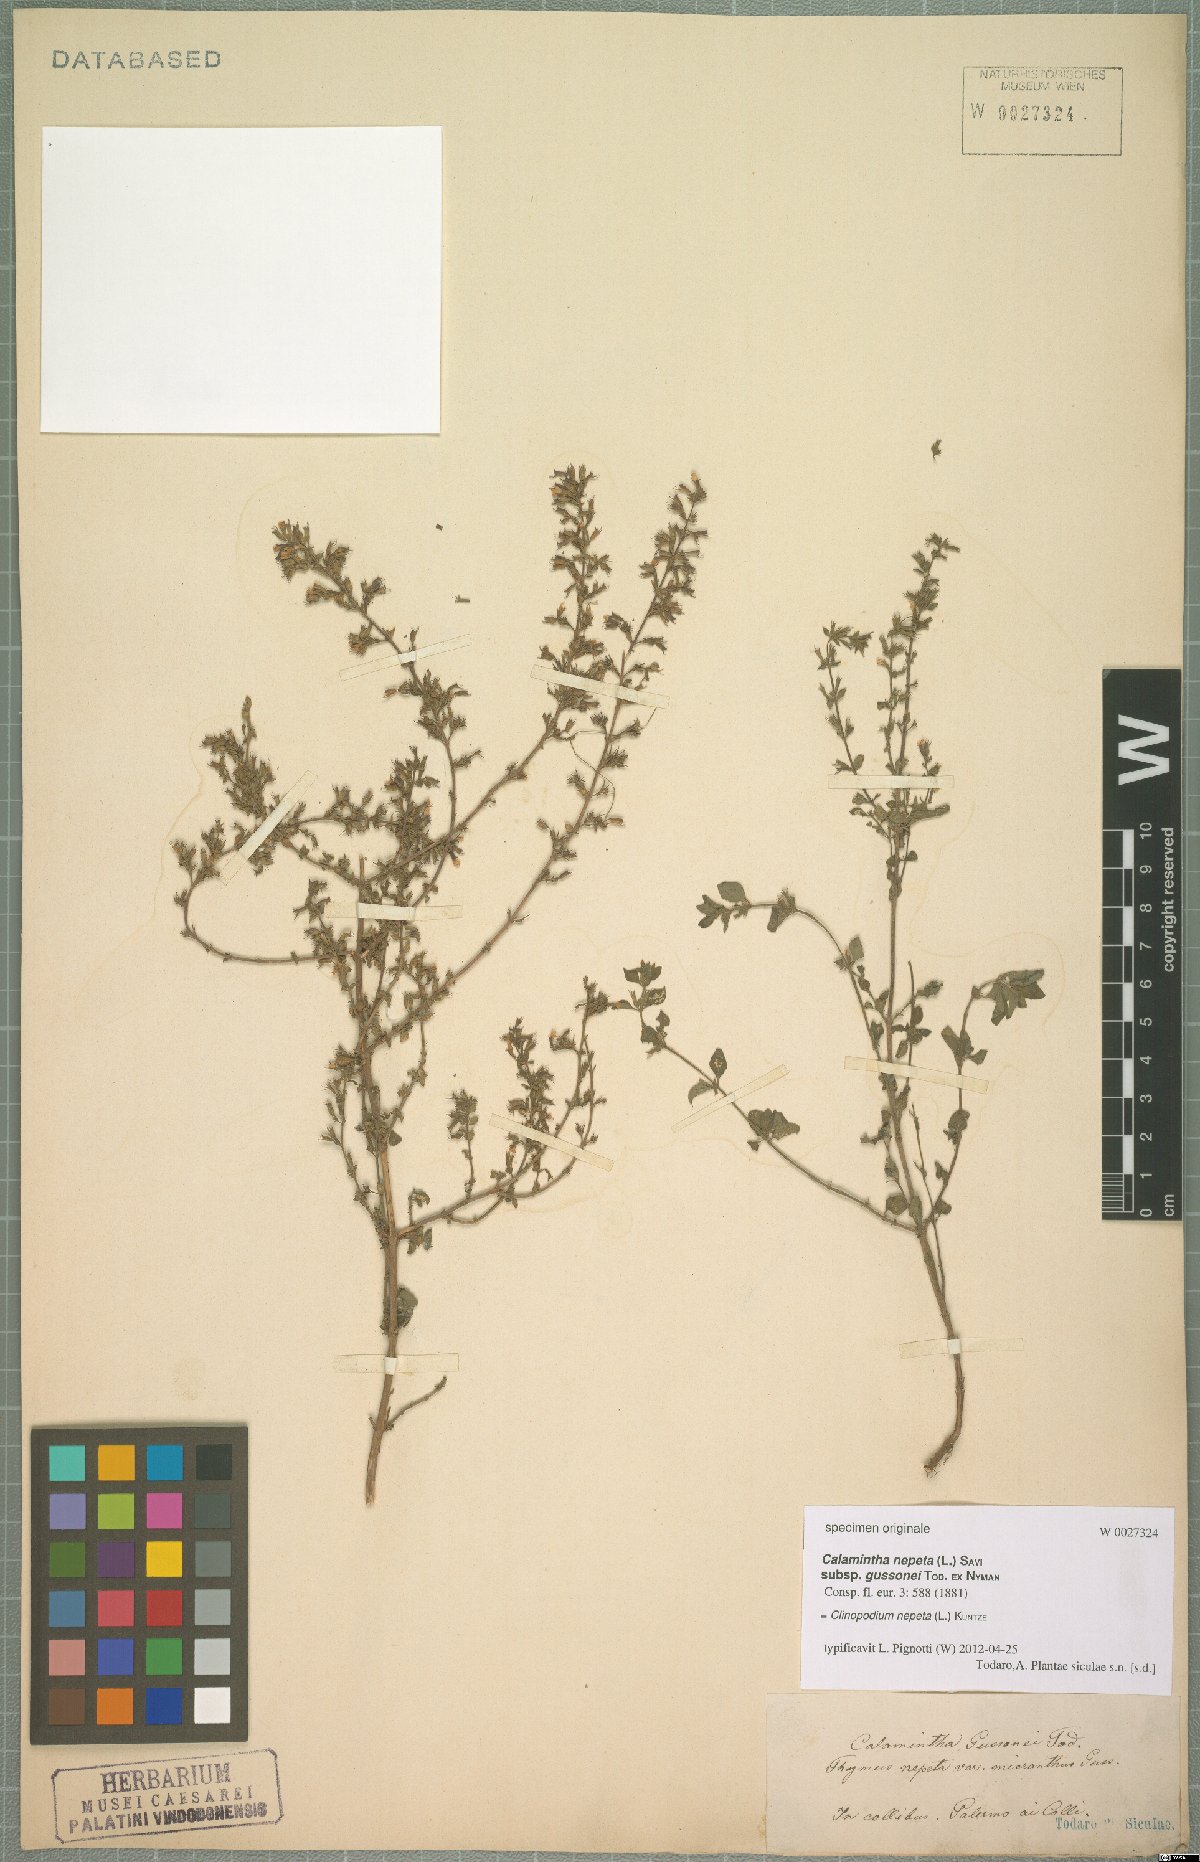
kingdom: Plantae
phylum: Tracheophyta
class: Magnoliopsida
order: Lamiales
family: Lamiaceae
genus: Clinopodium
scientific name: Clinopodium nepeta
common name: Lesser calamint
